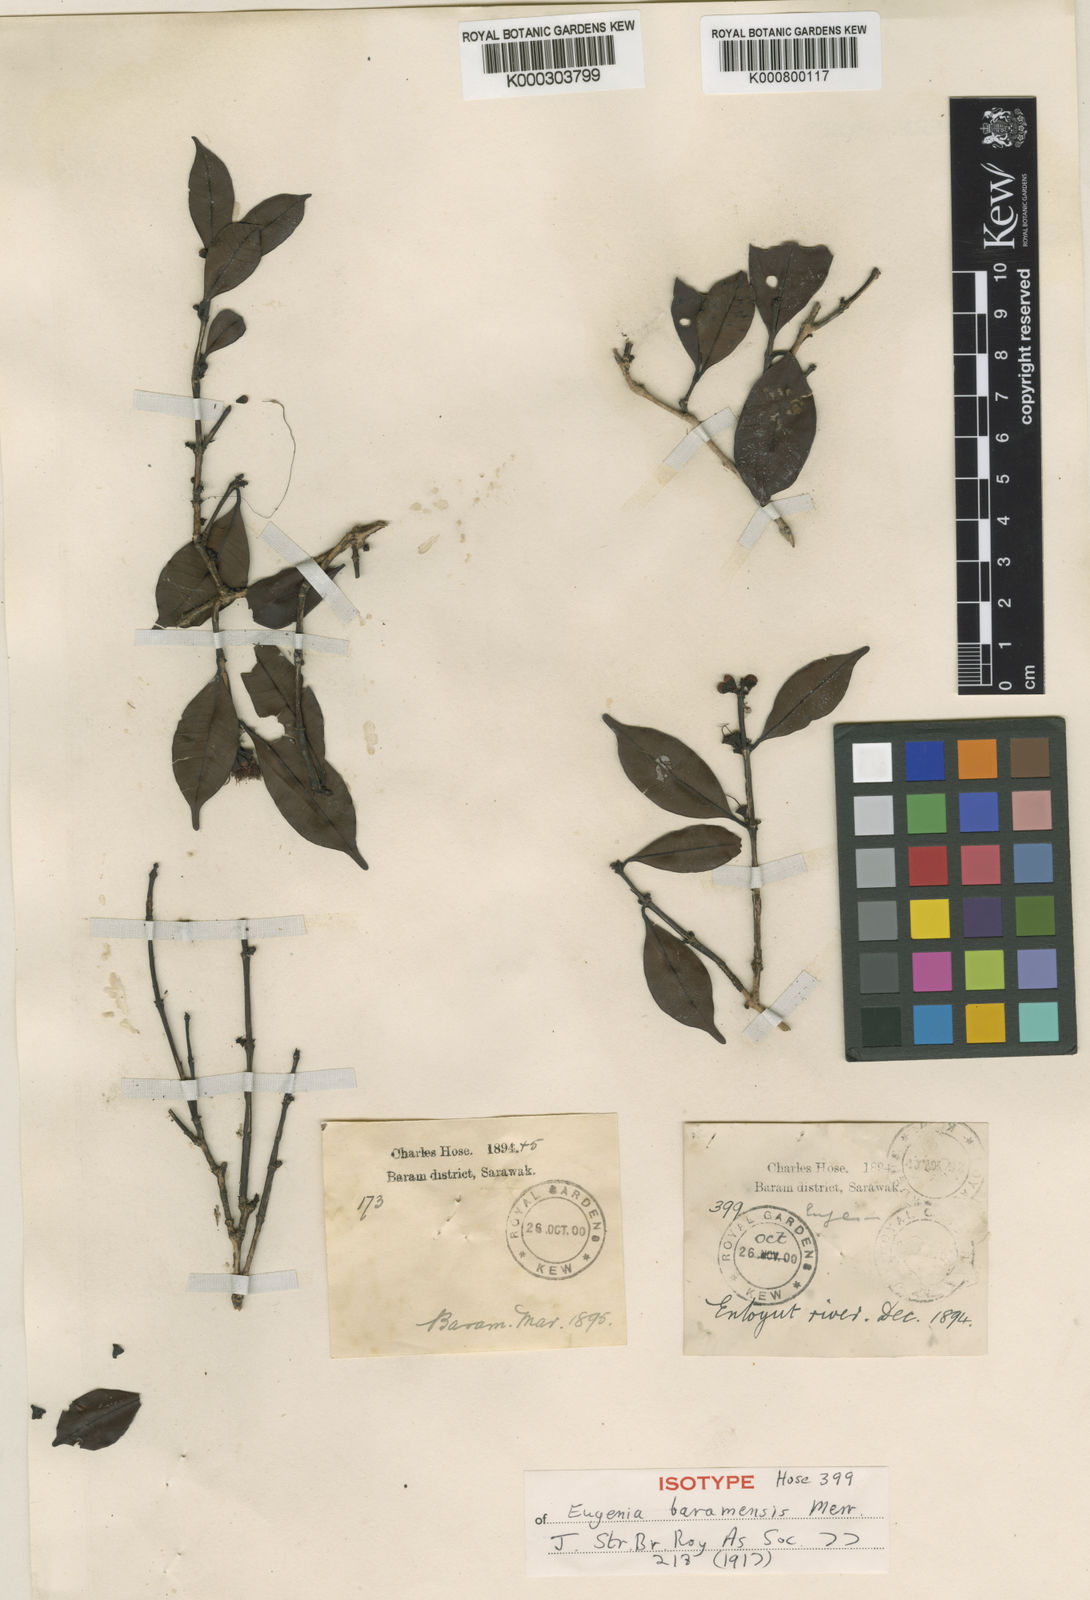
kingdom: Plantae
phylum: Tracheophyta
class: Magnoliopsida
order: Myrtales
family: Myrtaceae
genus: Syzygium
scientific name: Syzygium baramense
